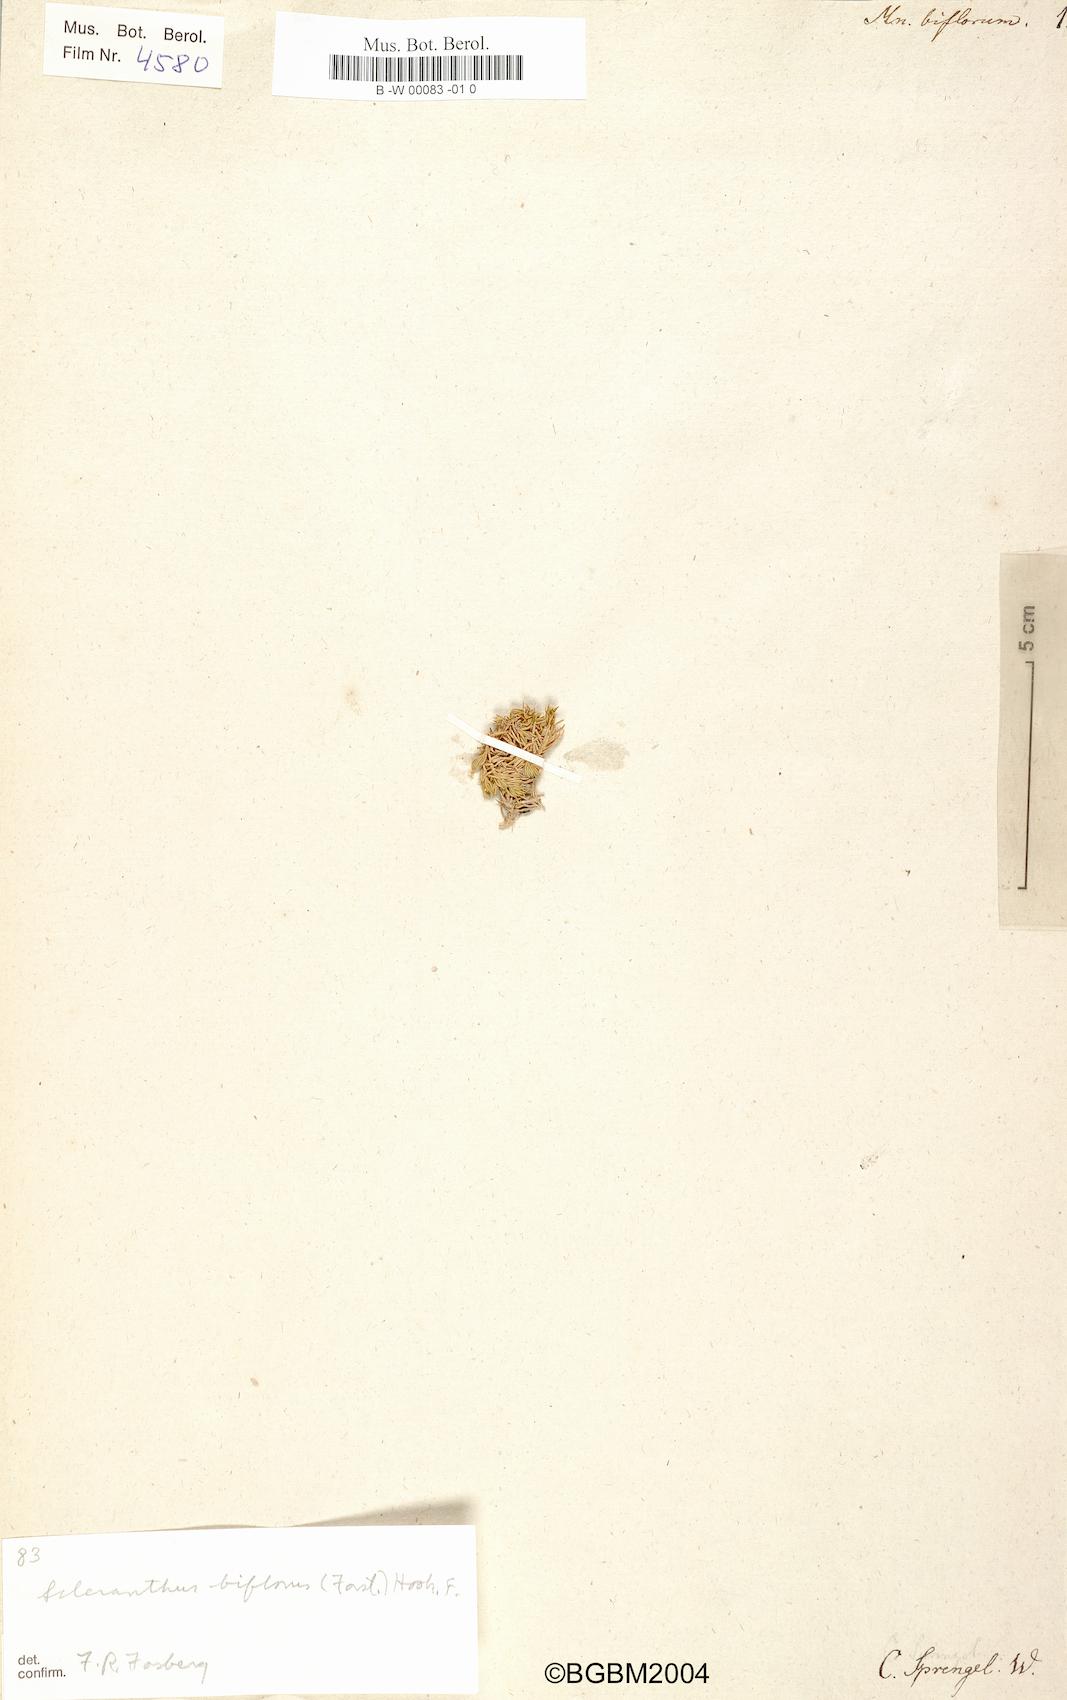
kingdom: Plantae
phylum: Tracheophyta
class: Magnoliopsida
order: Caryophyllales
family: Caryophyllaceae
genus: Scleranthus
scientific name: Scleranthus biflorus
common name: Two-flower knawel
